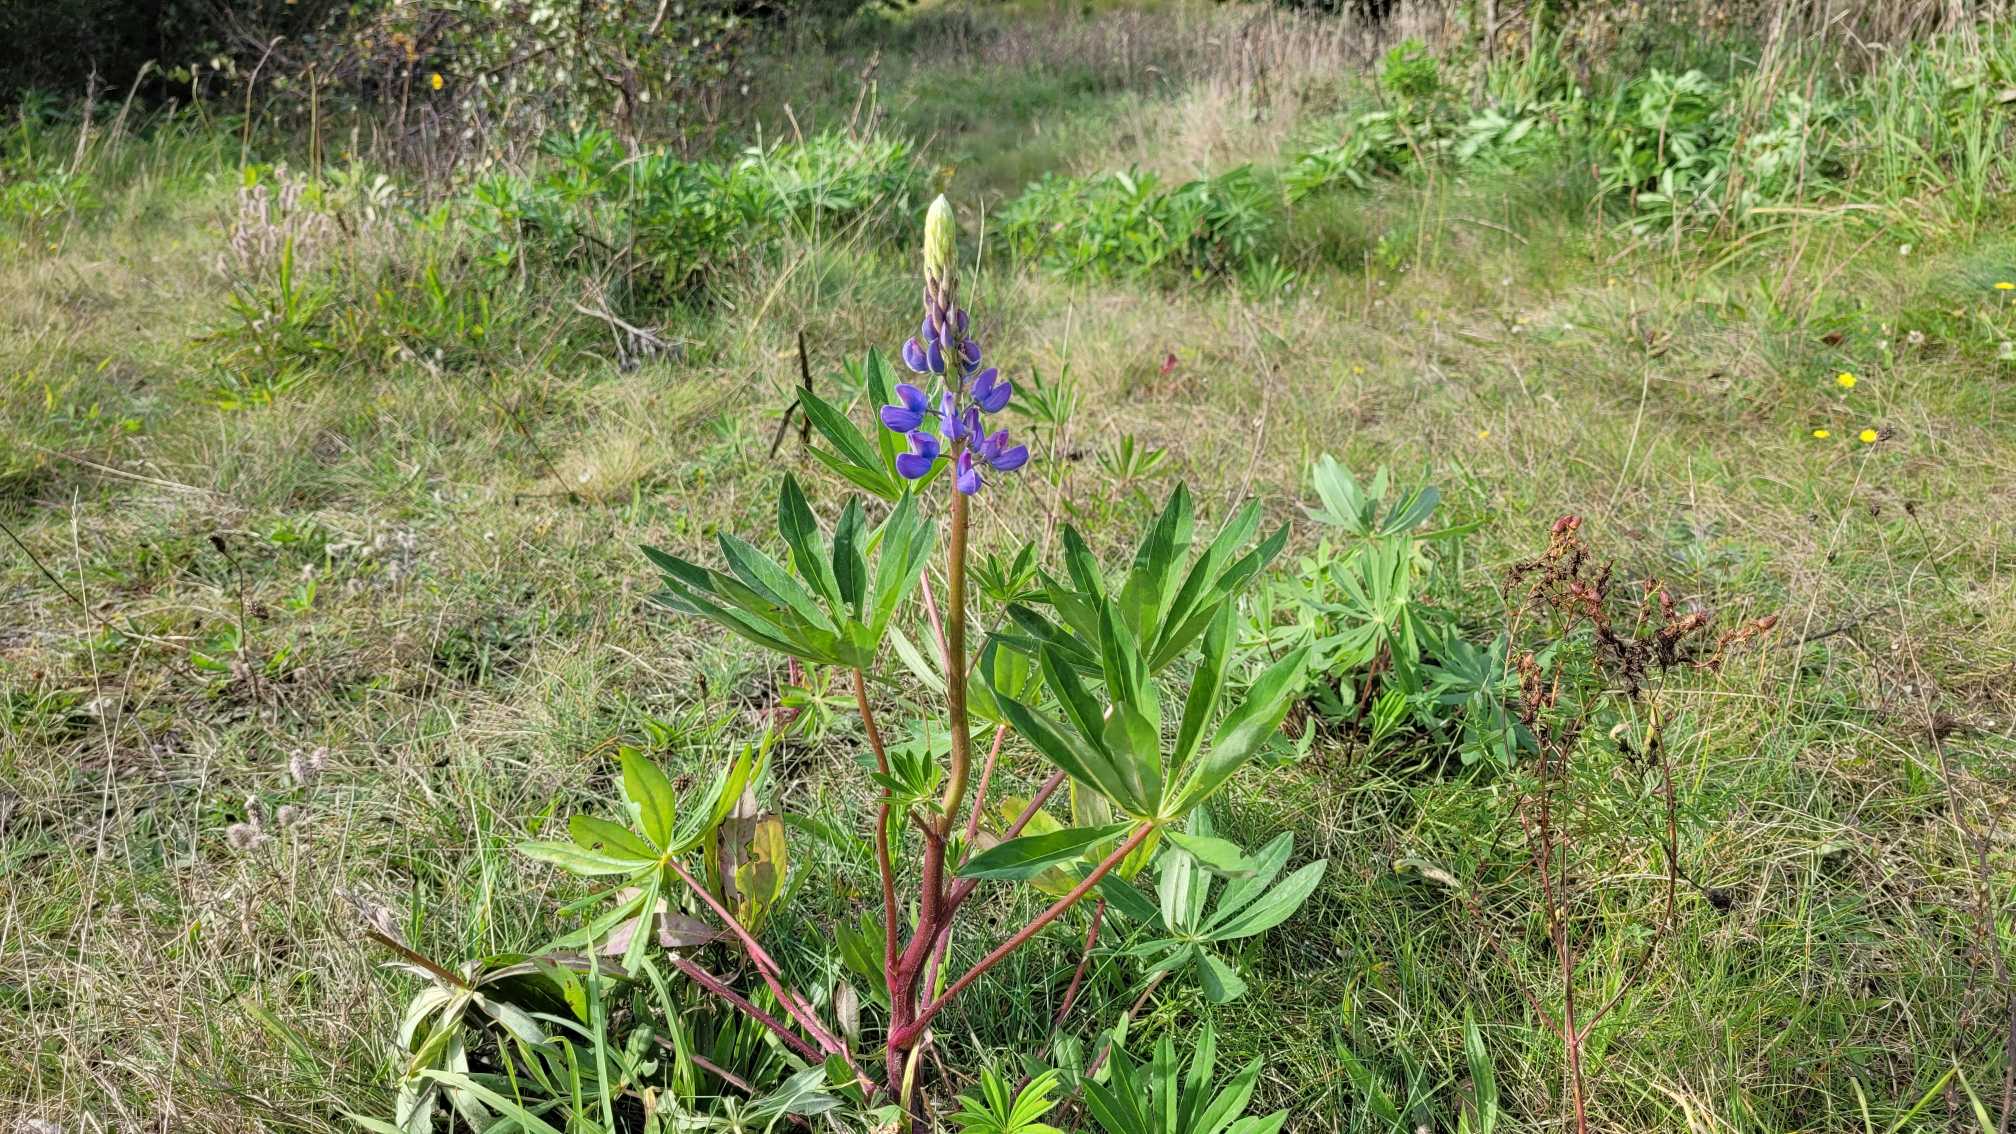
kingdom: Plantae
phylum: Tracheophyta
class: Magnoliopsida
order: Fabales
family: Fabaceae
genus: Lupinus
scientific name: Lupinus polyphyllus
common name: Mangebladet lupin
